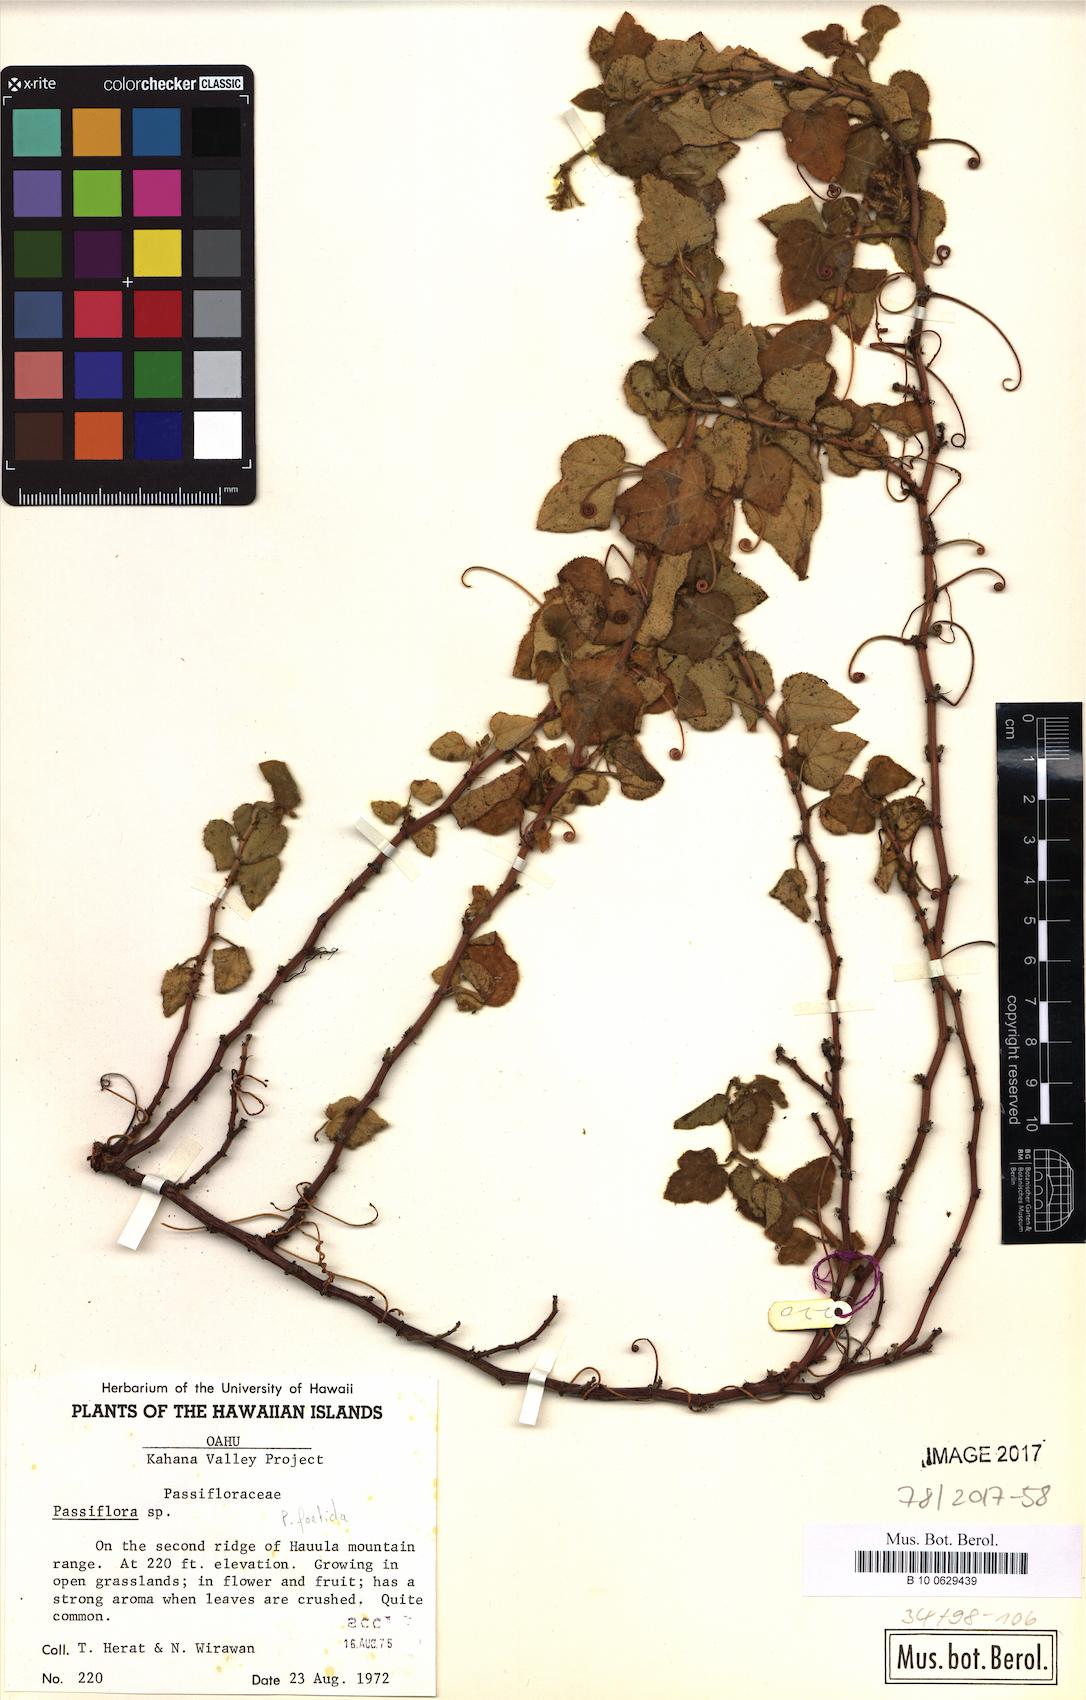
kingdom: Plantae
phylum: Tracheophyta
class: Magnoliopsida
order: Malpighiales
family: Passifloraceae
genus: Passiflora
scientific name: Passiflora foetida
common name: Fetid passionflower
